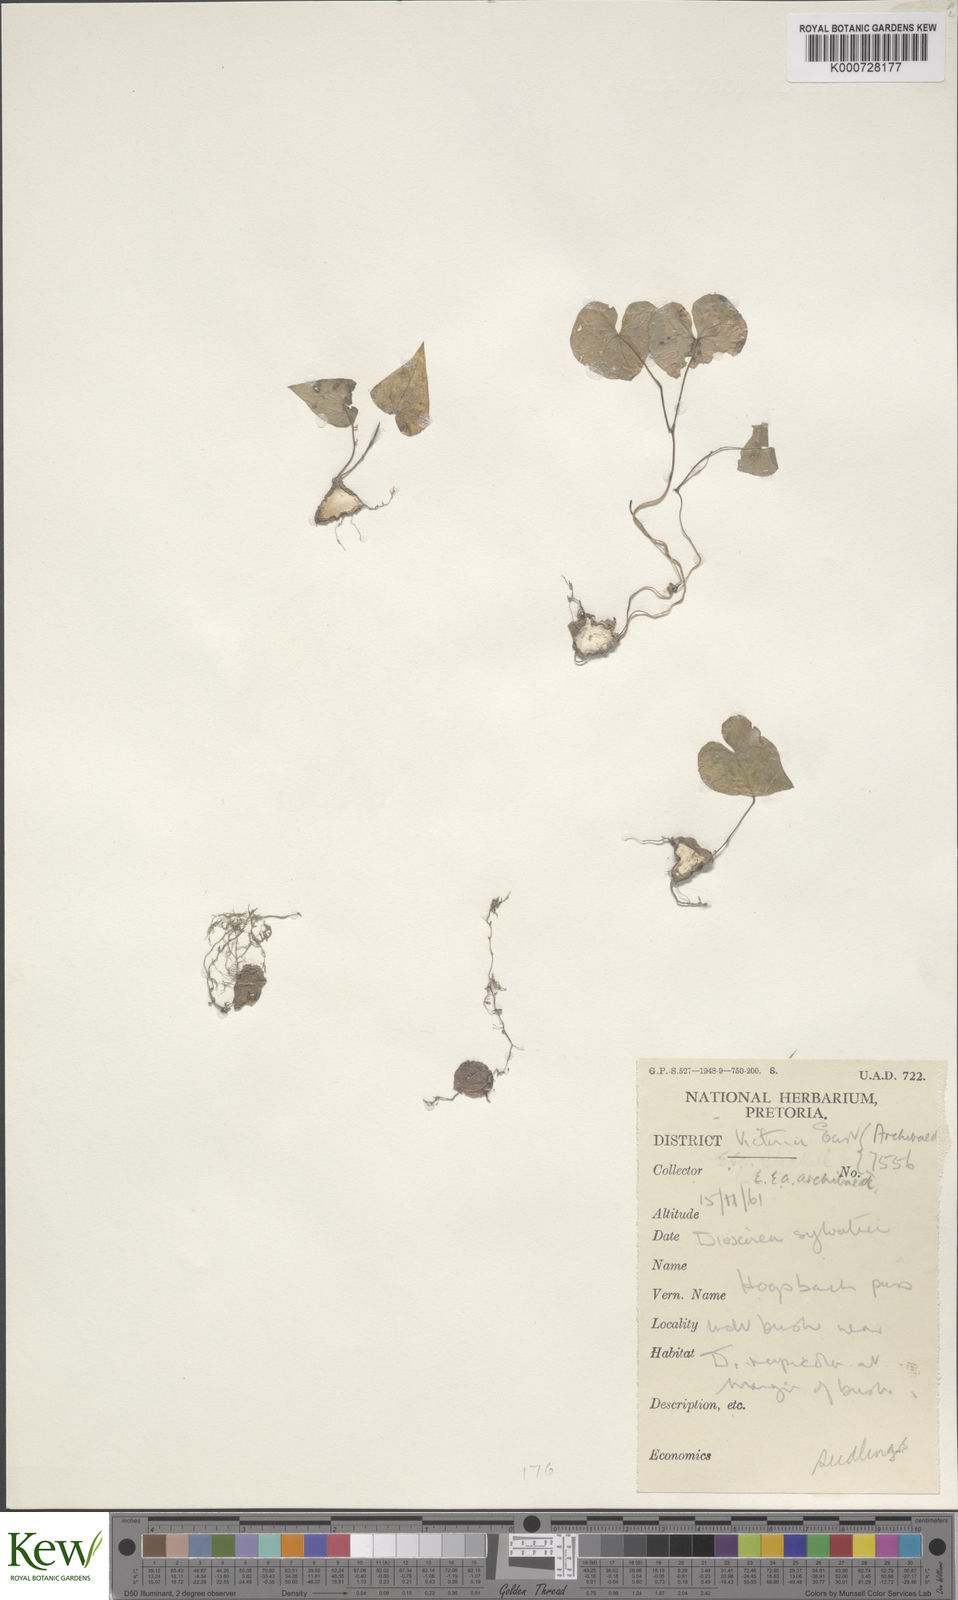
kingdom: Plantae
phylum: Tracheophyta
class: Liliopsida
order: Dioscoreales
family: Dioscoreaceae
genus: Dioscorea
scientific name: Dioscorea sylvatica
